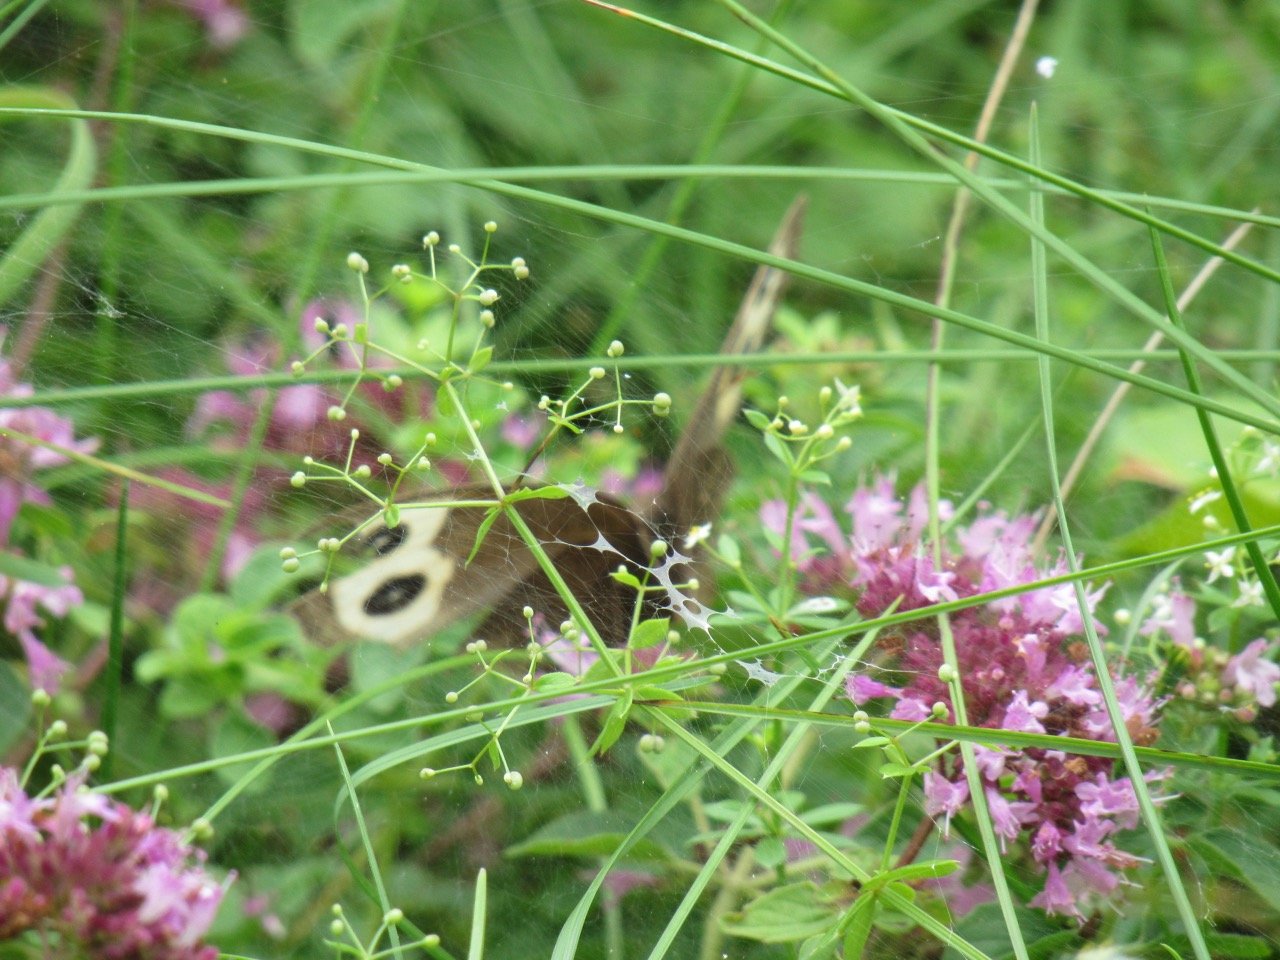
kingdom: Animalia
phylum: Arthropoda
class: Insecta
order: Lepidoptera
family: Nymphalidae
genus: Cercyonis
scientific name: Cercyonis pegala
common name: Common Wood-Nymph
